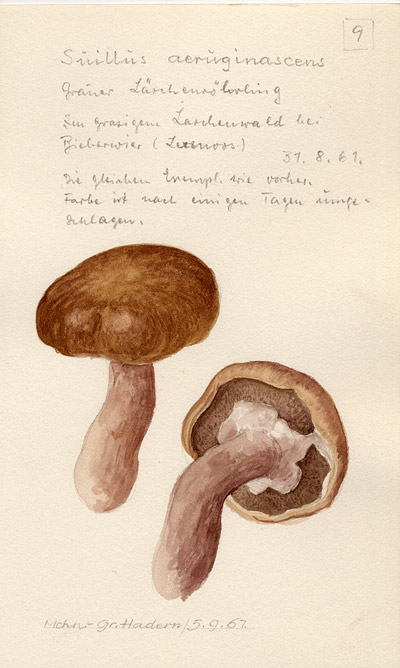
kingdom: Fungi
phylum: Basidiomycota
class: Agaricomycetes
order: Boletales
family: Suillaceae
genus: Suillus
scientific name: Suillus
